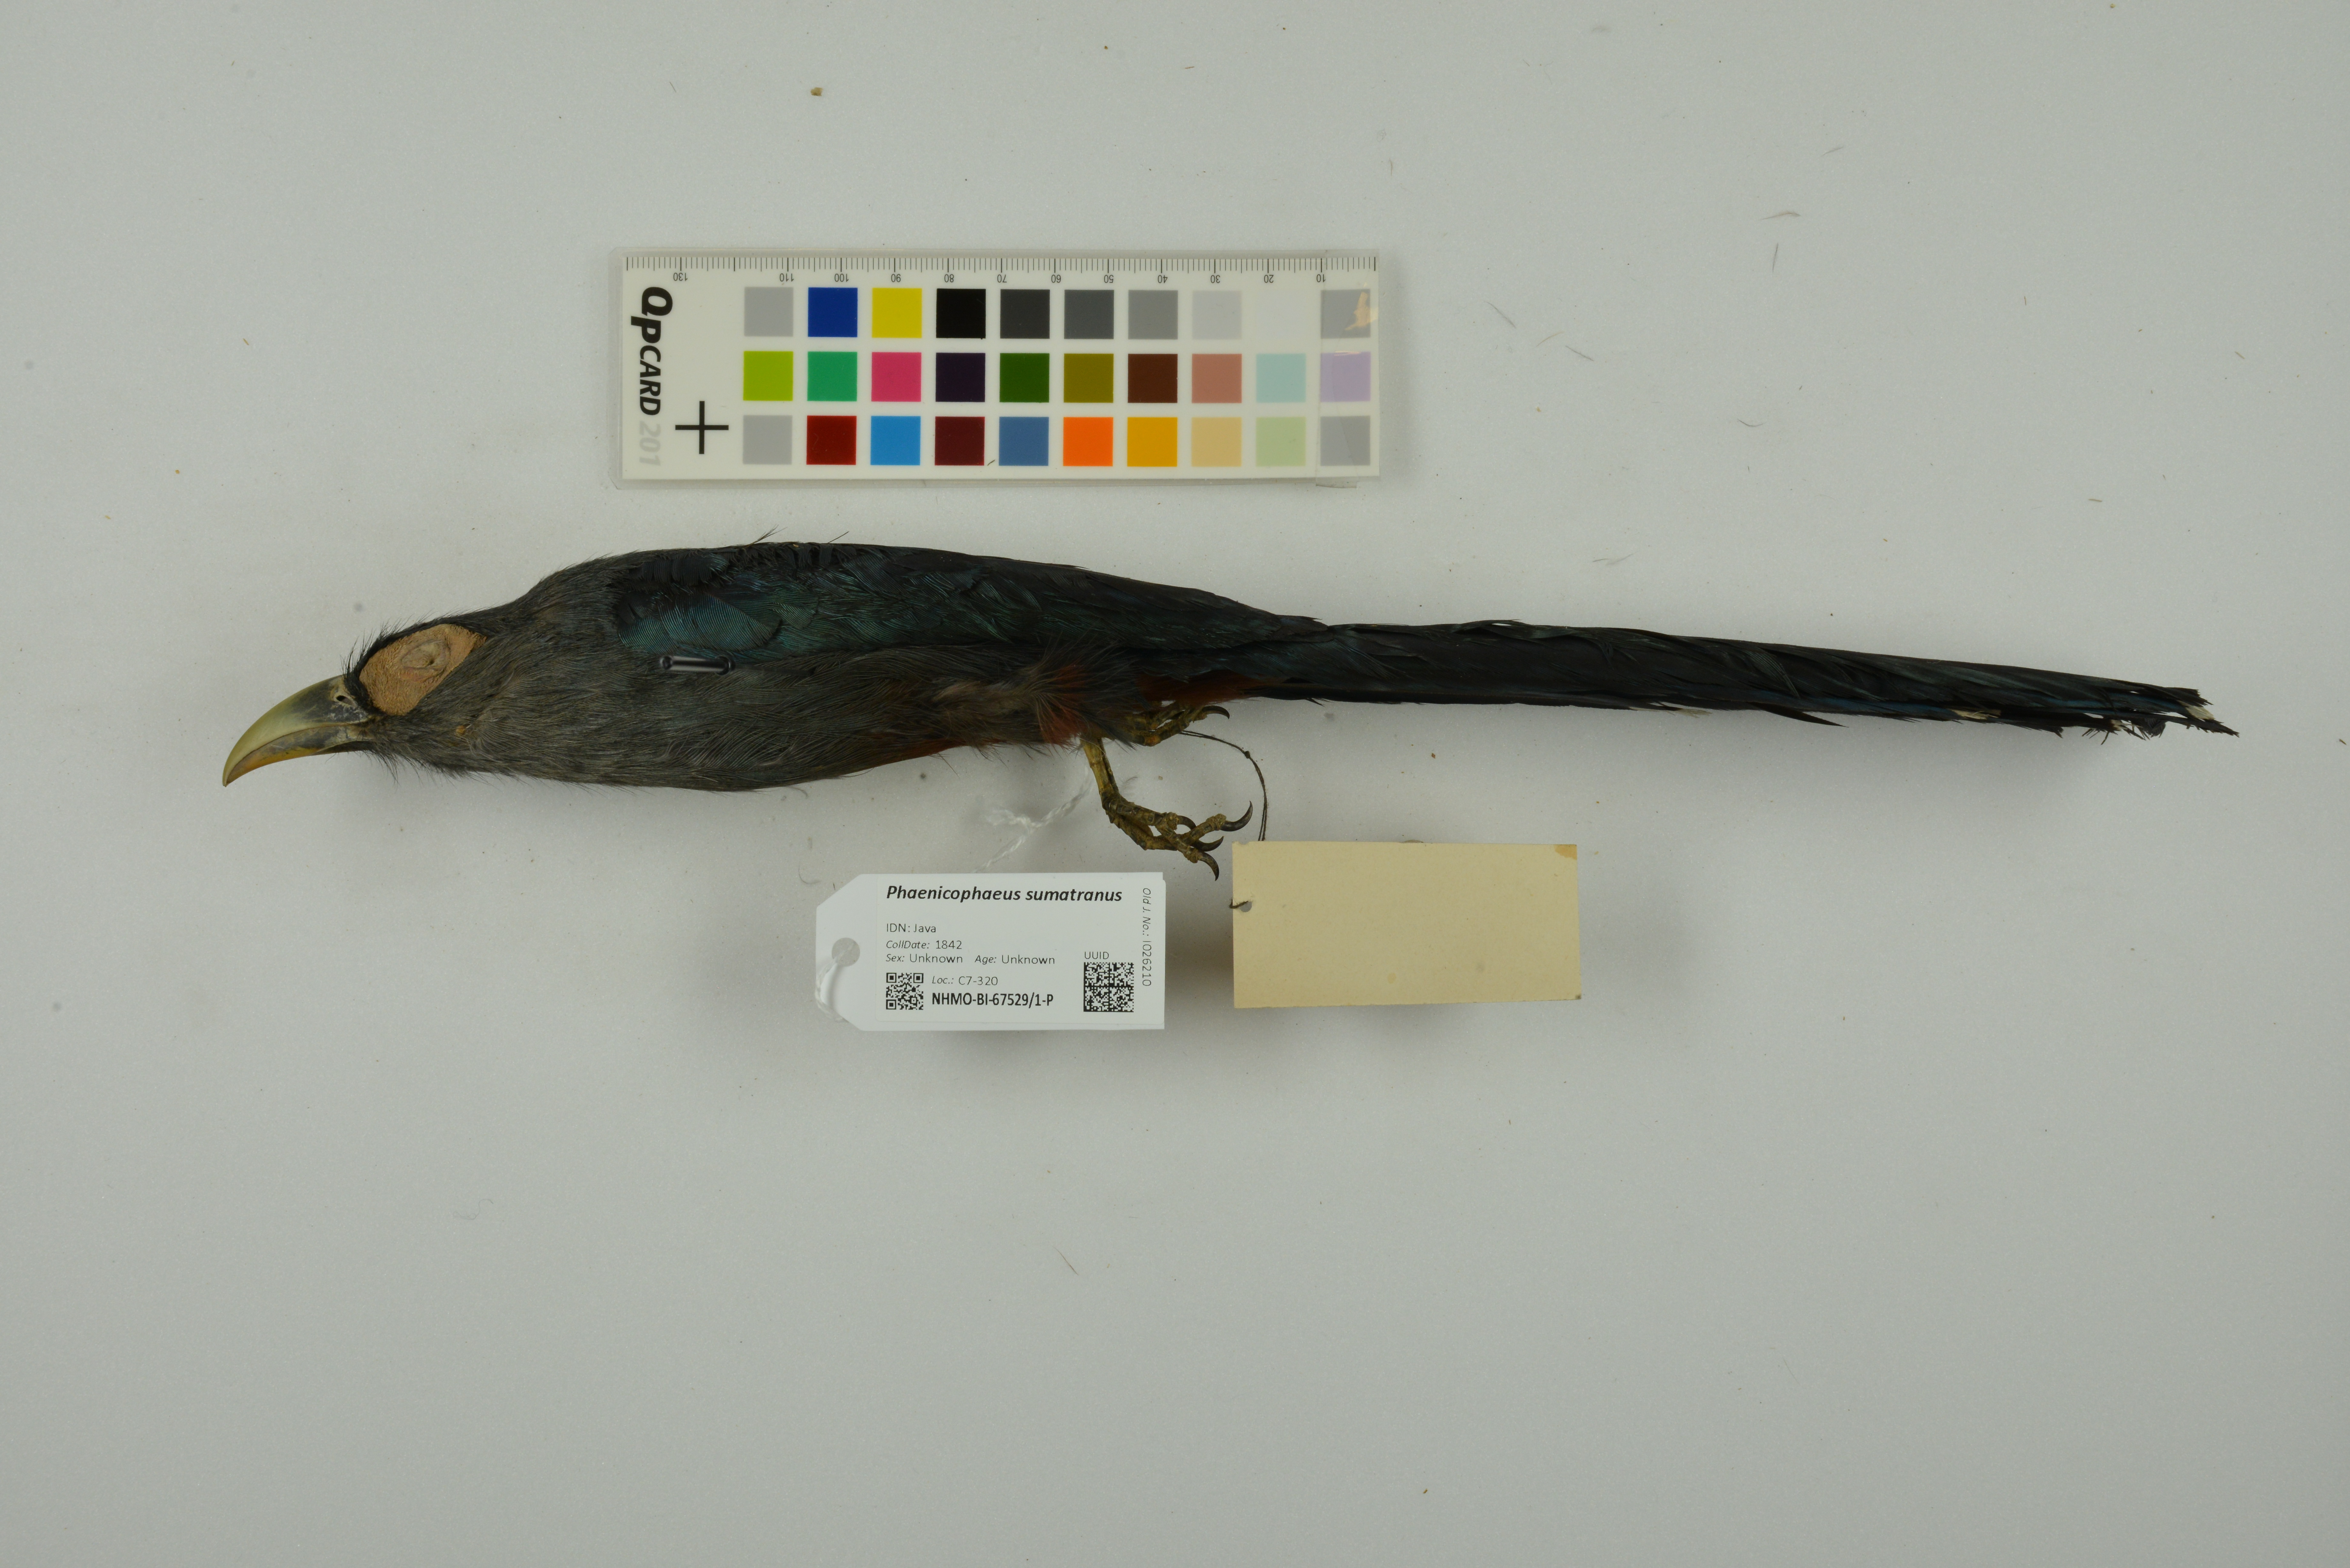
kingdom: Animalia
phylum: Chordata
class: Aves
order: Cuculiformes
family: Cuculidae
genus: Rhopodytes
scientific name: Rhopodytes sumatranus
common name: Rufous-bellied malcoha
